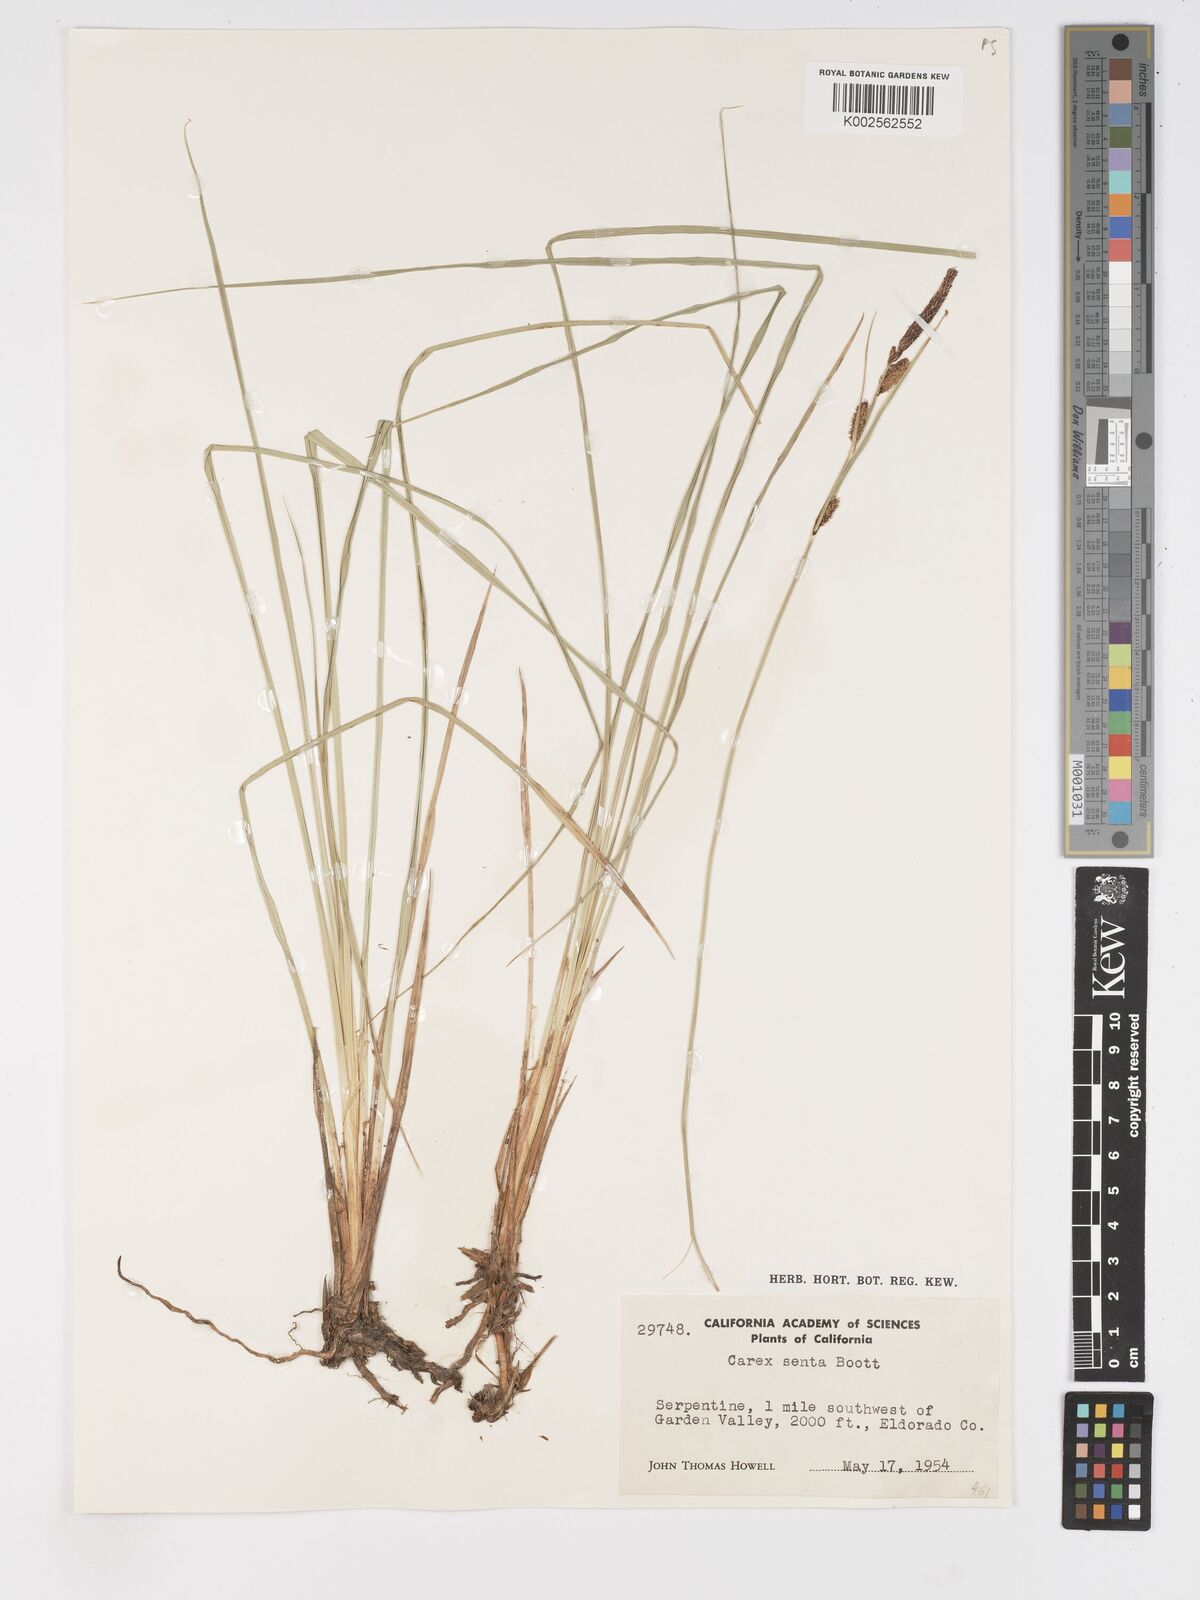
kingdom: Plantae
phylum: Tracheophyta
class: Liliopsida
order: Poales
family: Cyperaceae
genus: Carex
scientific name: Carex senta
